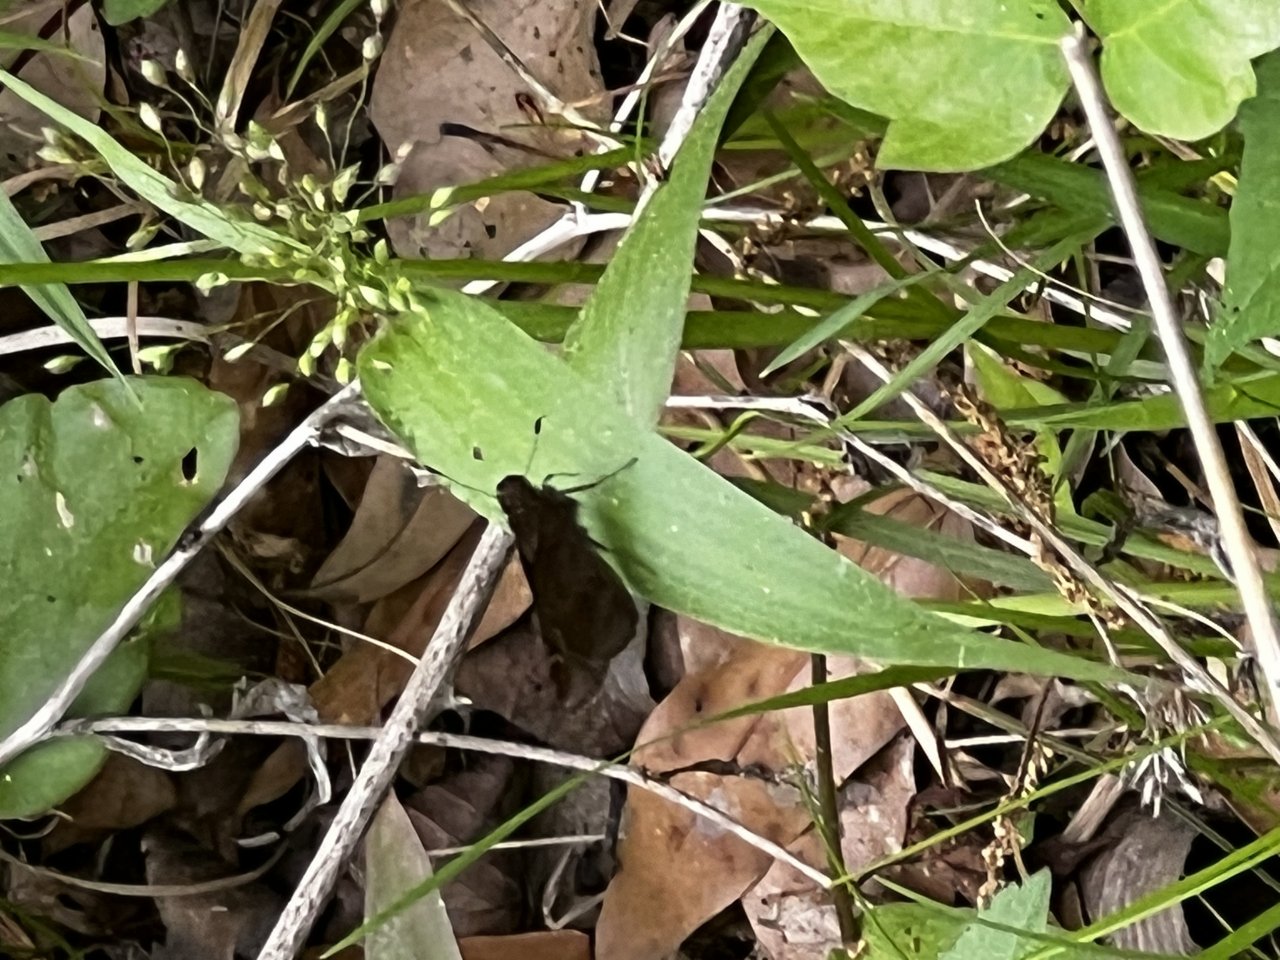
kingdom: Animalia
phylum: Arthropoda
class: Insecta
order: Lepidoptera
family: Hesperiidae
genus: Lerema
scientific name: Lerema accius
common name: Clouded Skipper
